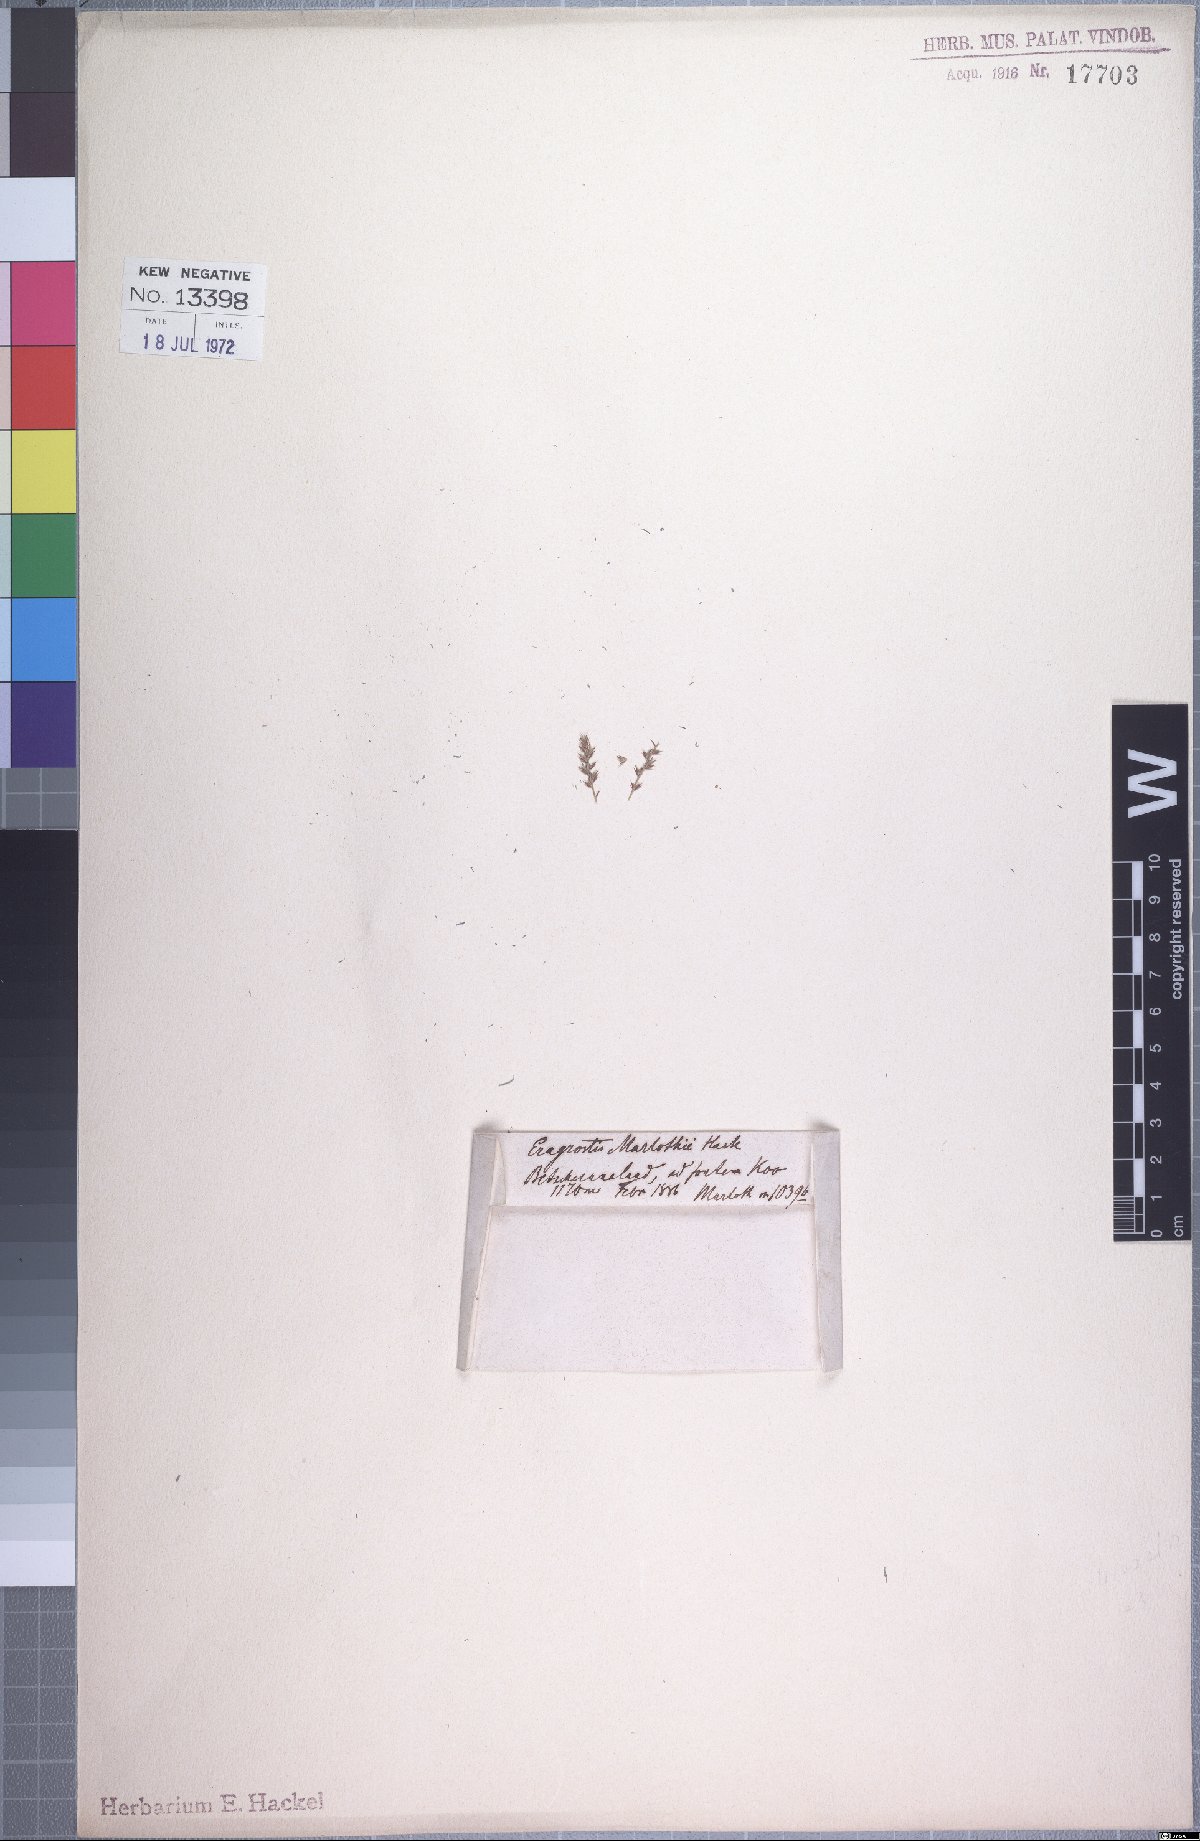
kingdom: Plantae
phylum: Tracheophyta
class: Liliopsida
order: Poales
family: Poaceae
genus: Pogonarthria
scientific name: Pogonarthria squarrosa
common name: Grass
